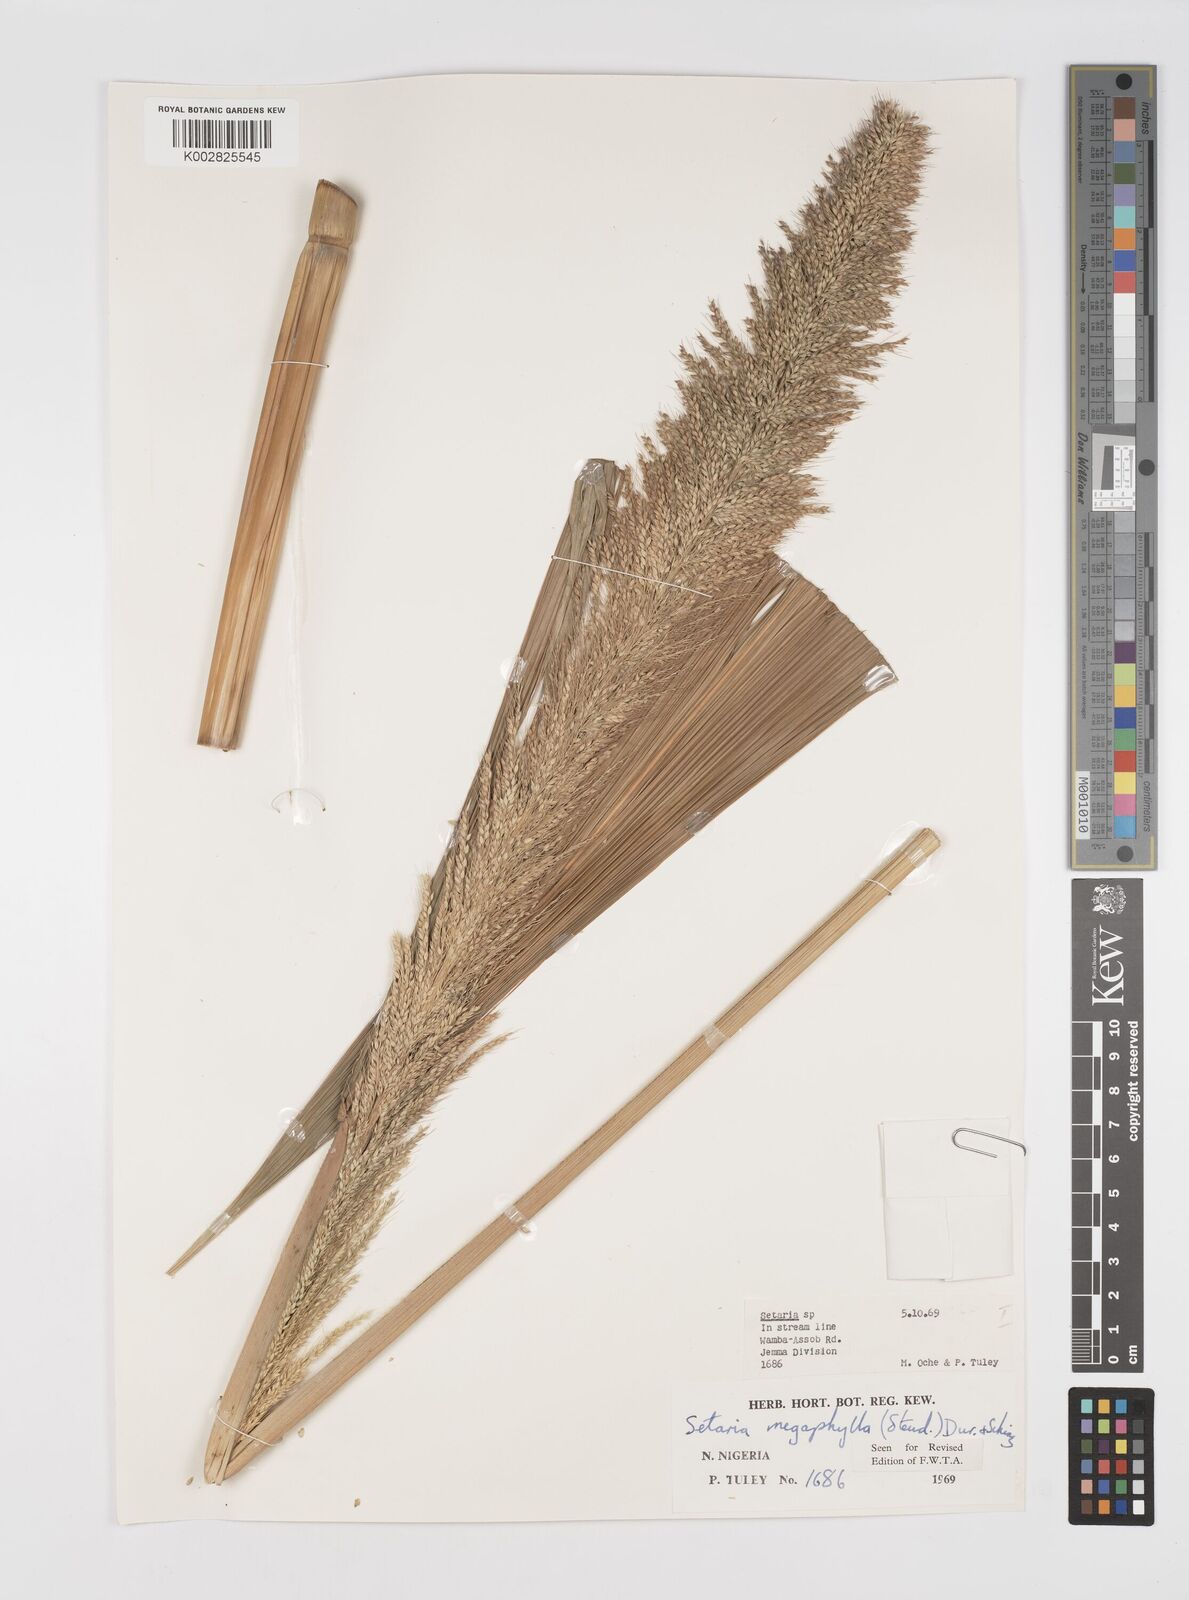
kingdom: Plantae
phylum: Tracheophyta
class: Liliopsida
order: Poales
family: Poaceae
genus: Setaria
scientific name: Setaria megaphylla
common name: Bigleaf bristlegrass
